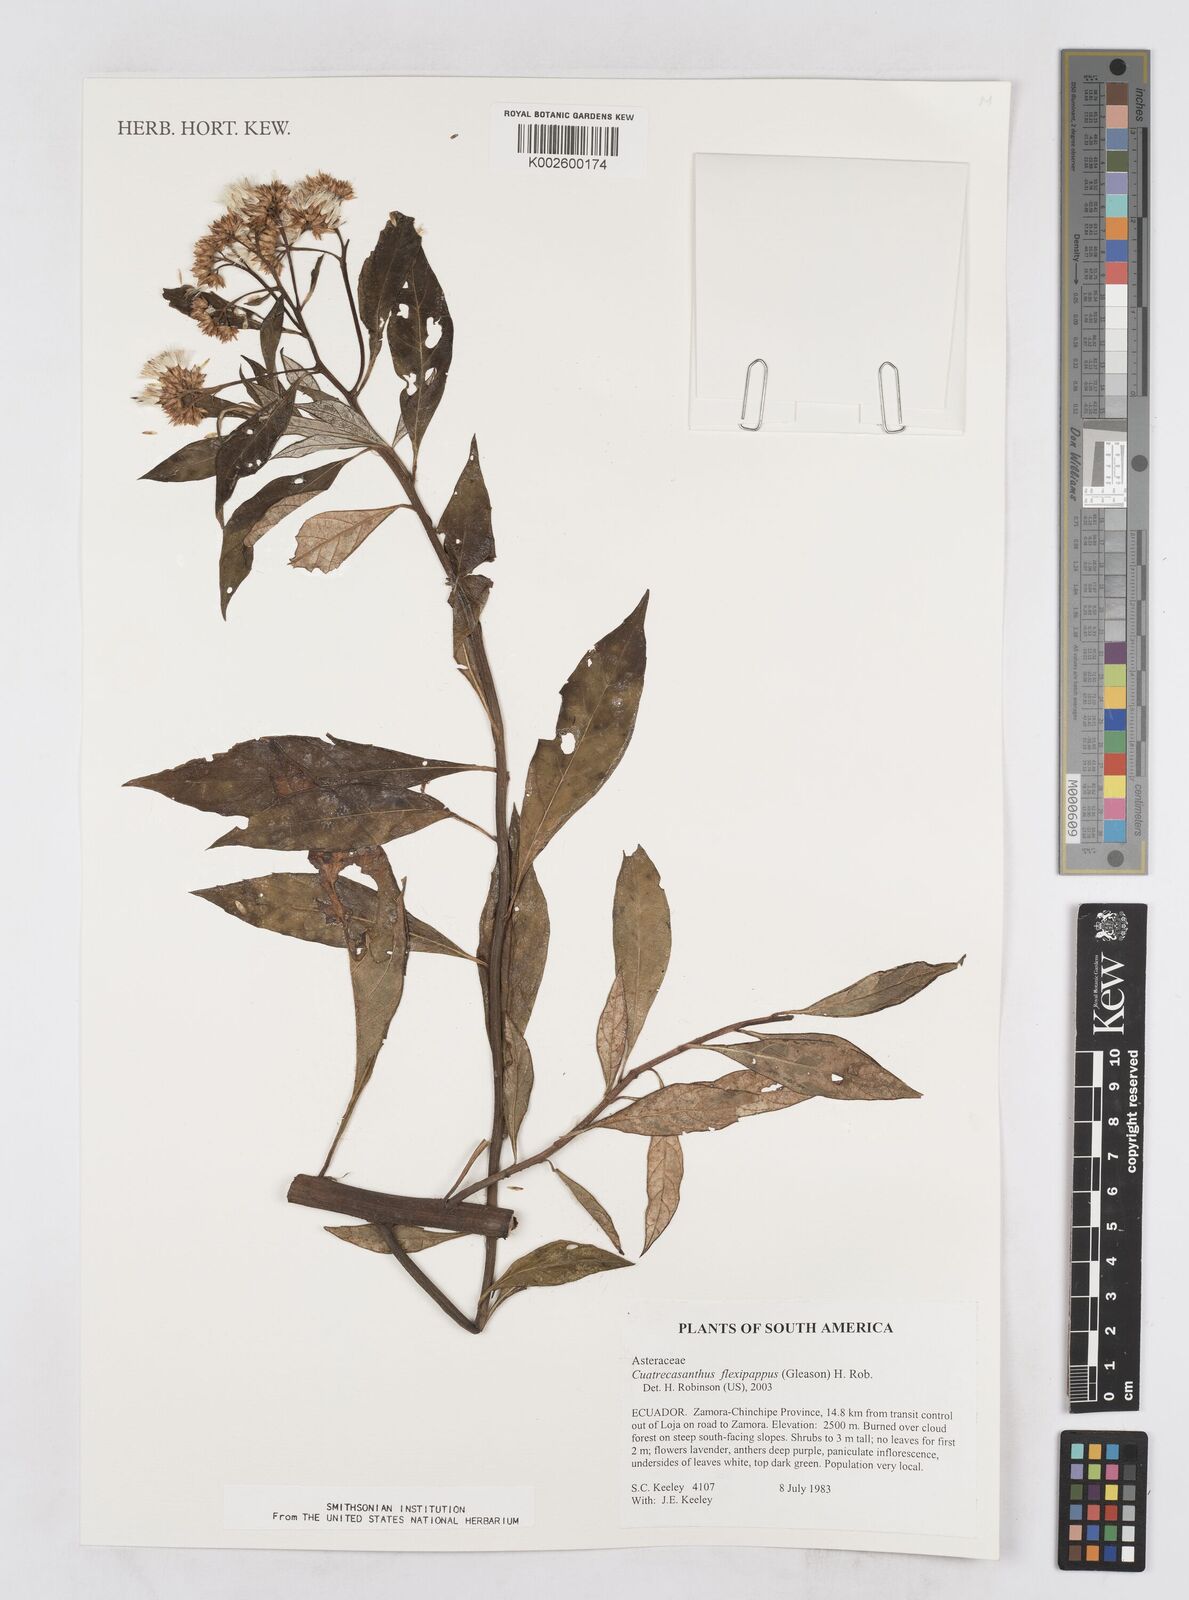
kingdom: Plantae
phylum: Tracheophyta
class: Magnoliopsida
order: Asterales
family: Asteraceae
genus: Cuatrecasanthus
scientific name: Cuatrecasanthus flexipappus
